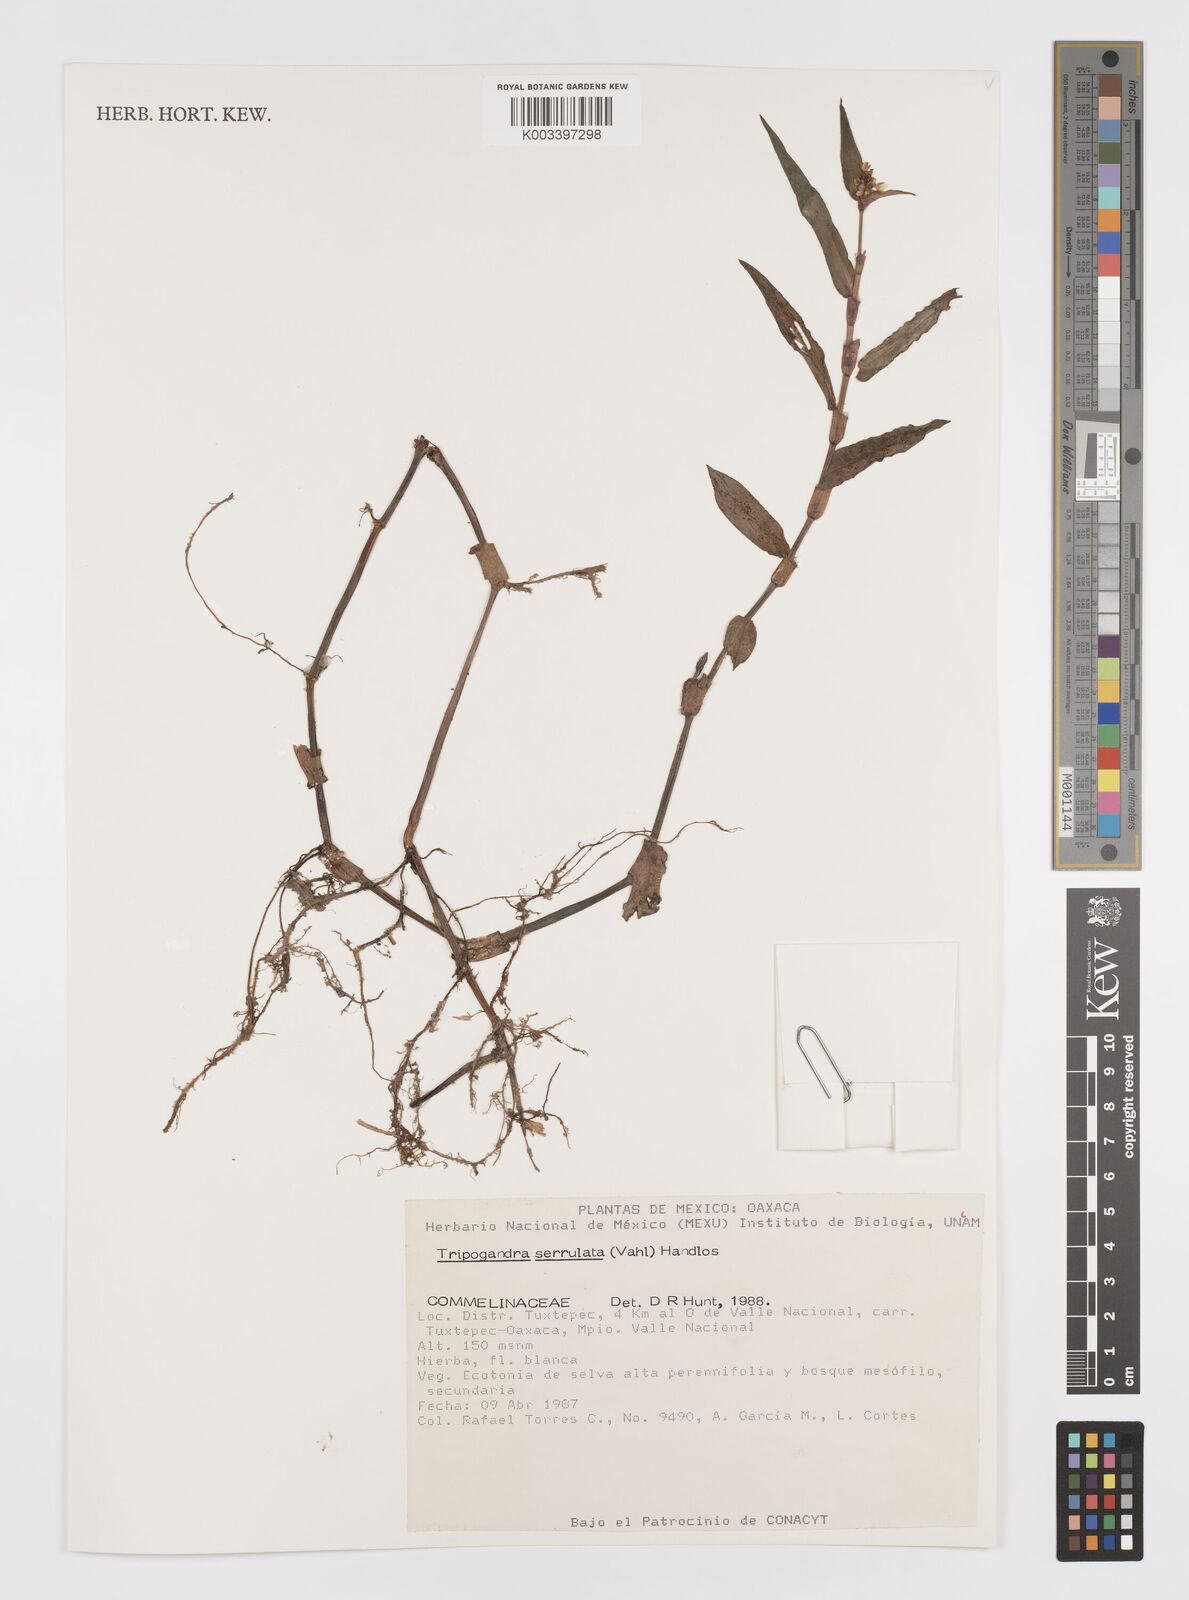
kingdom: Plantae
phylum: Tracheophyta
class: Liliopsida
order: Commelinales
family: Commelinaceae
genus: Callisia
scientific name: Callisia serrulata
